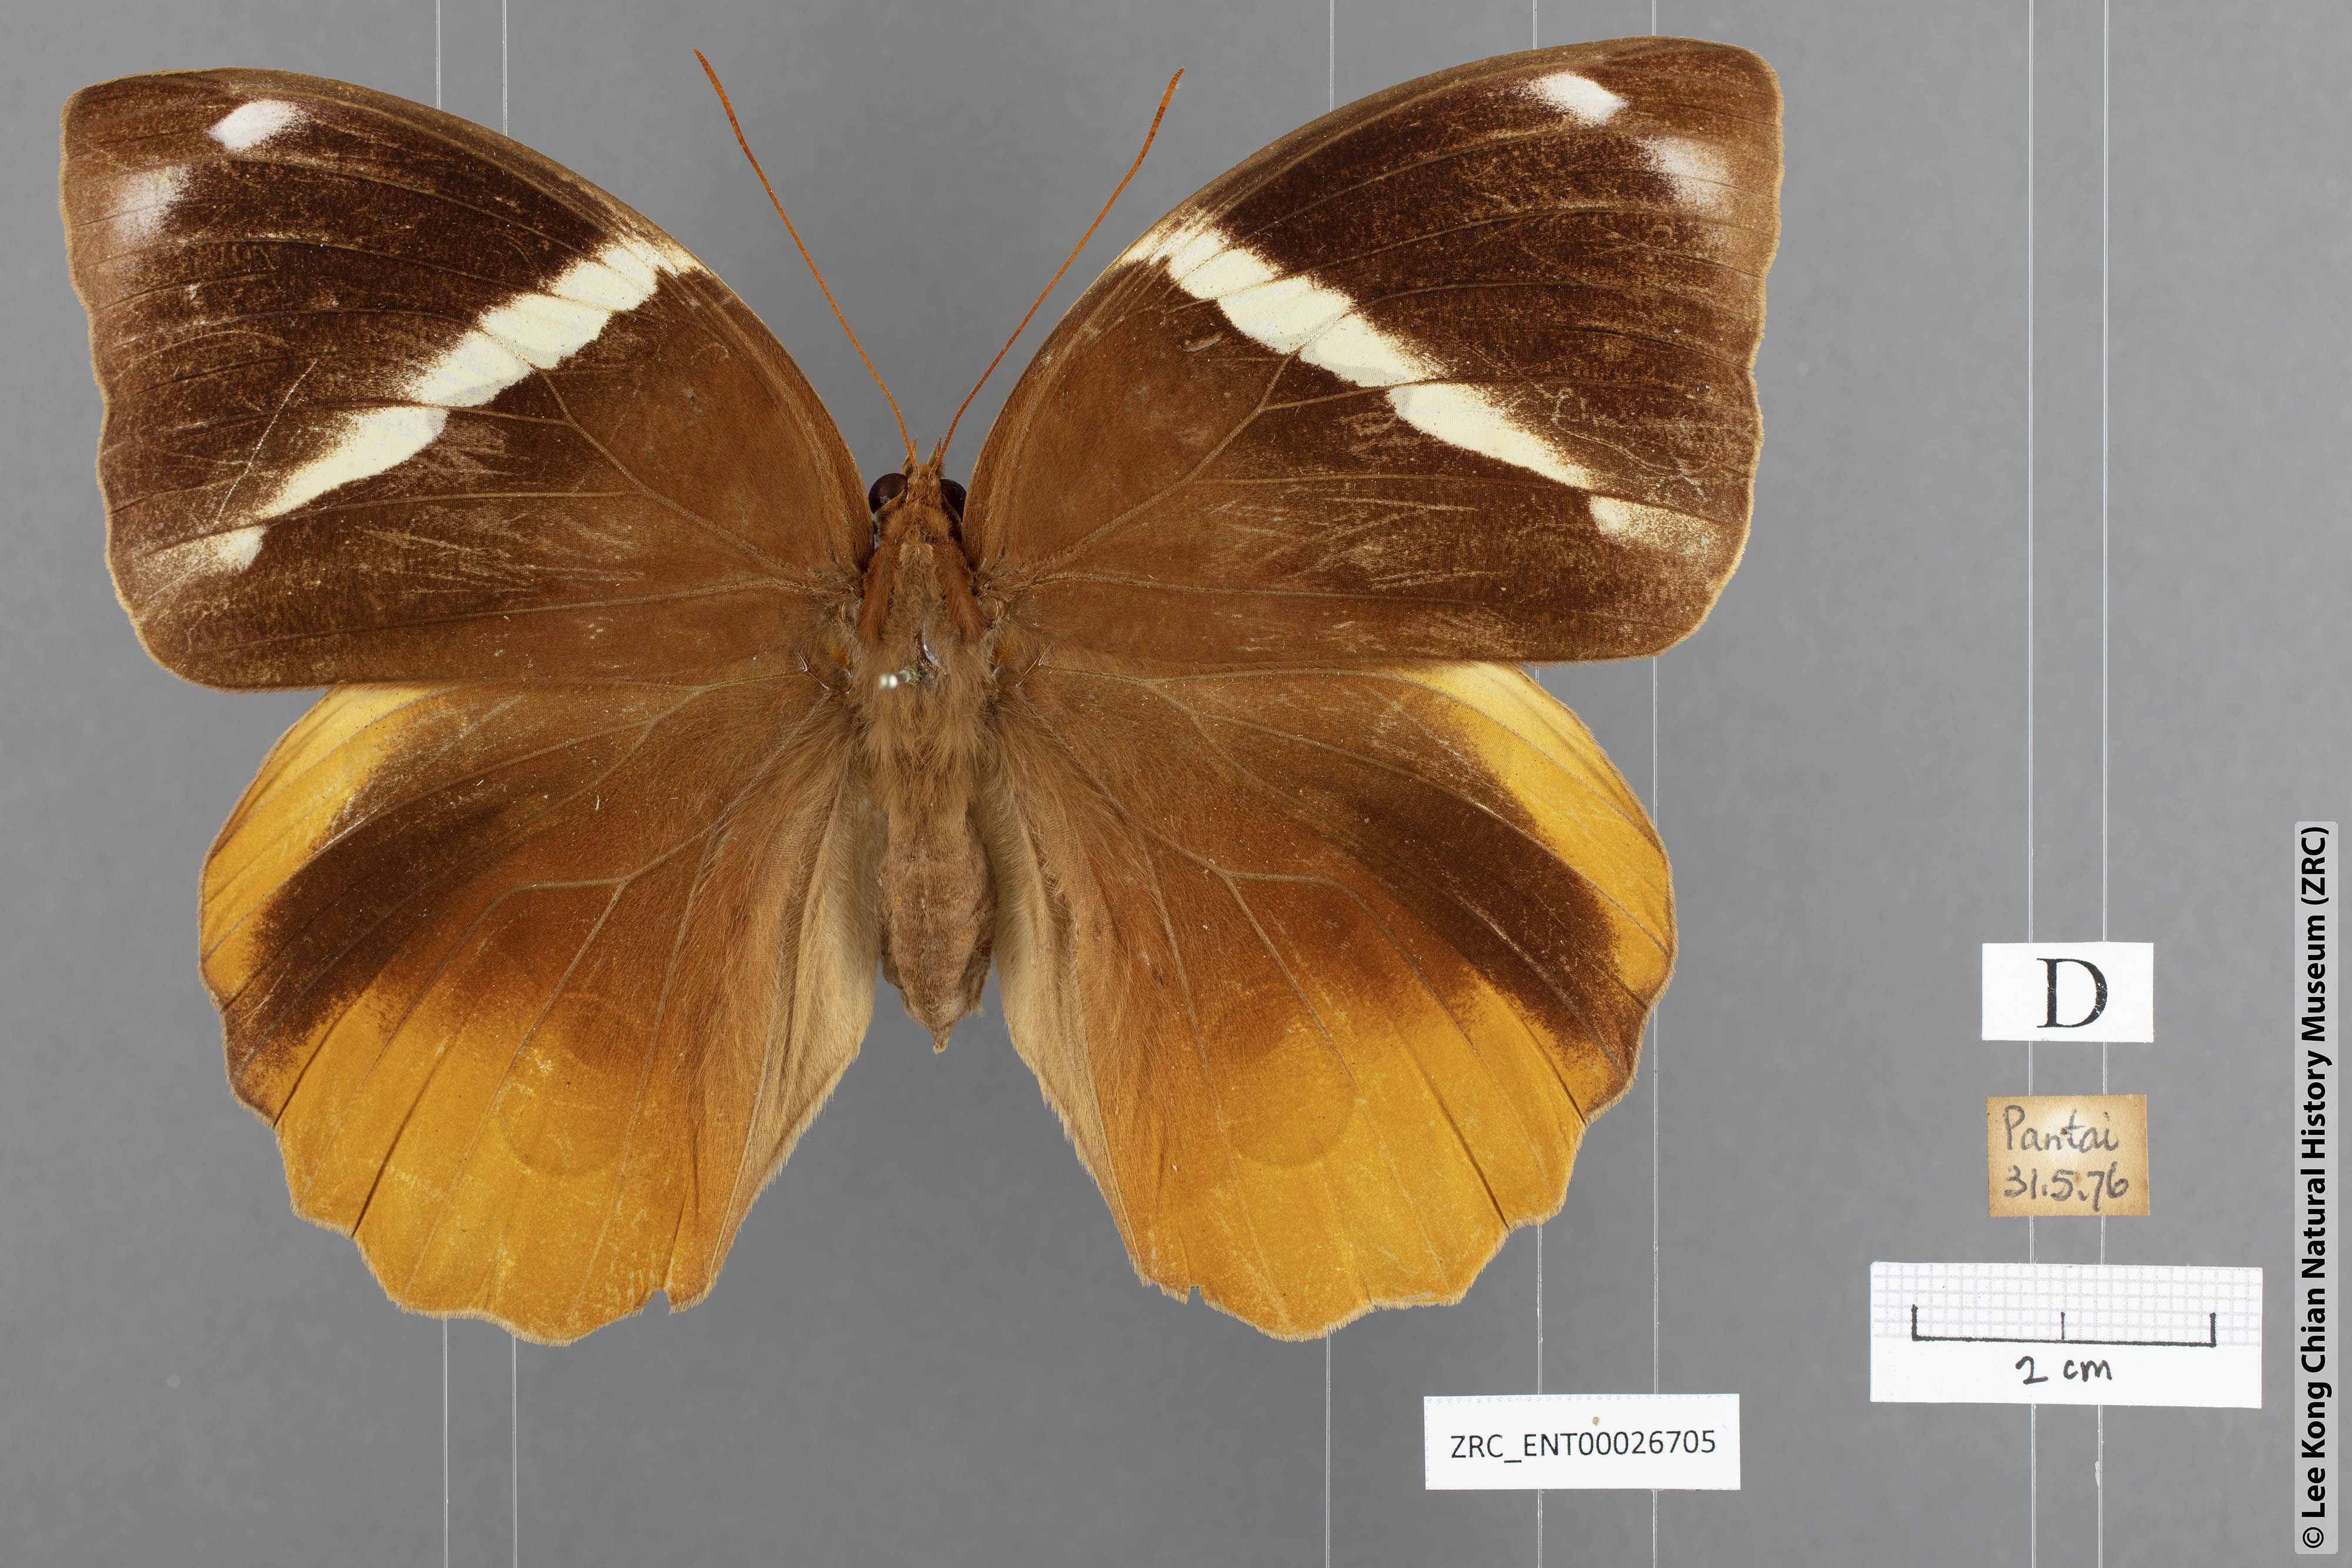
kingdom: Animalia
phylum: Arthropoda
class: Insecta
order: Lepidoptera
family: Nymphalidae
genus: Thauria
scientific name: Thauria aliris
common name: Tufted jungle king
